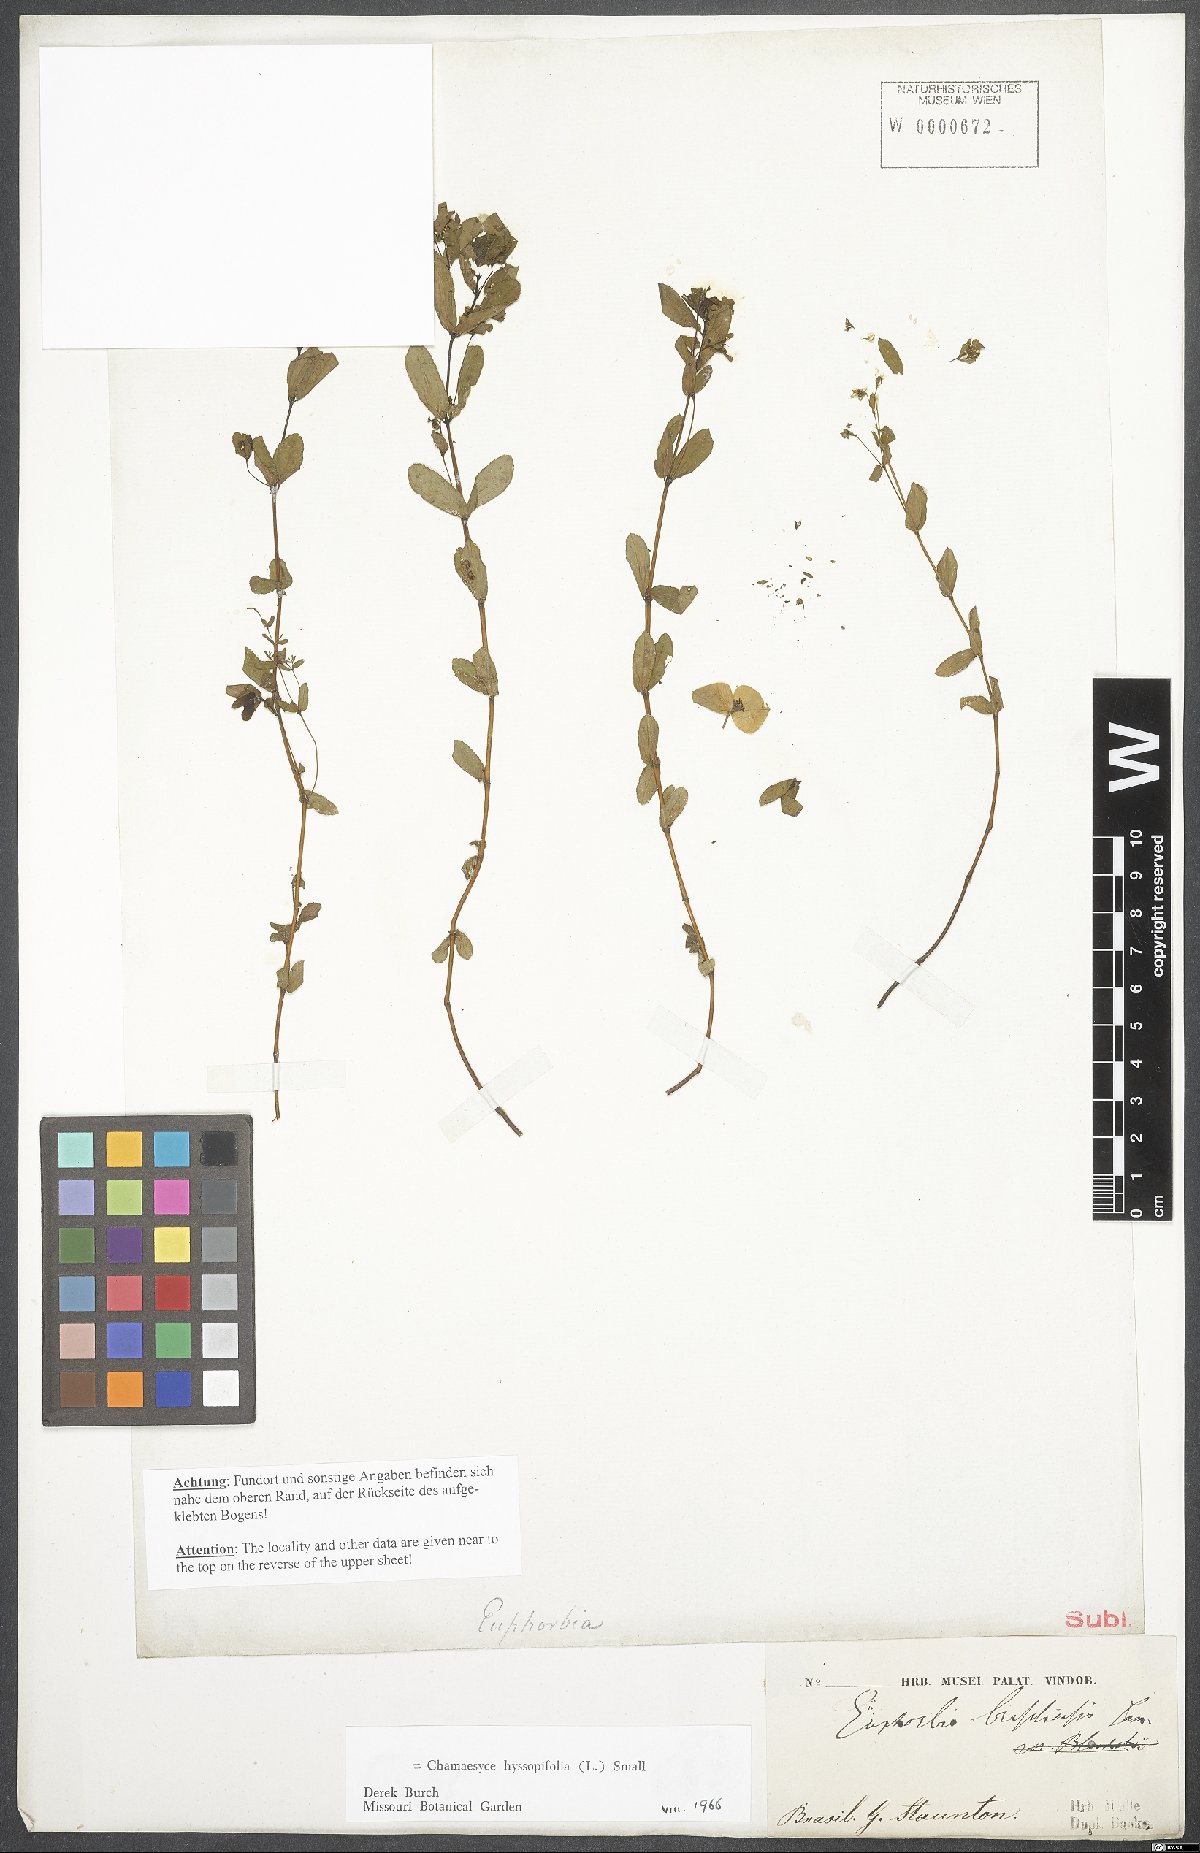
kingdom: Plantae
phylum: Tracheophyta
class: Magnoliopsida
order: Malpighiales
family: Euphorbiaceae
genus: Euphorbia
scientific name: Euphorbia hyssopifolia
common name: Hyssopleaf sandmat
